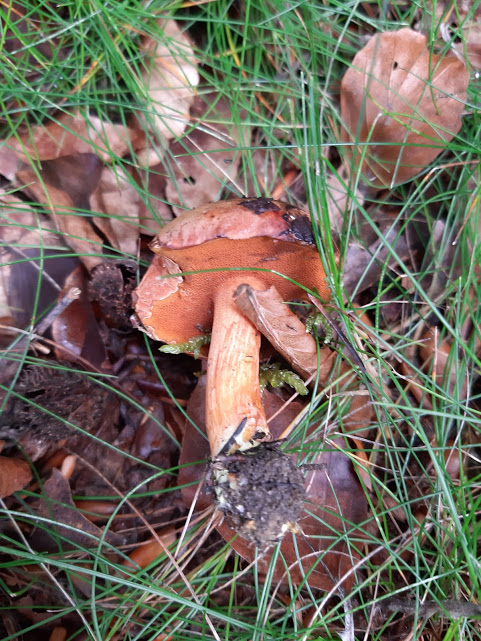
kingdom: Fungi
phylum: Basidiomycota
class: Agaricomycetes
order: Boletales
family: Boletaceae
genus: Chalciporus
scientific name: Chalciporus piperatus
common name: peberrørhat
